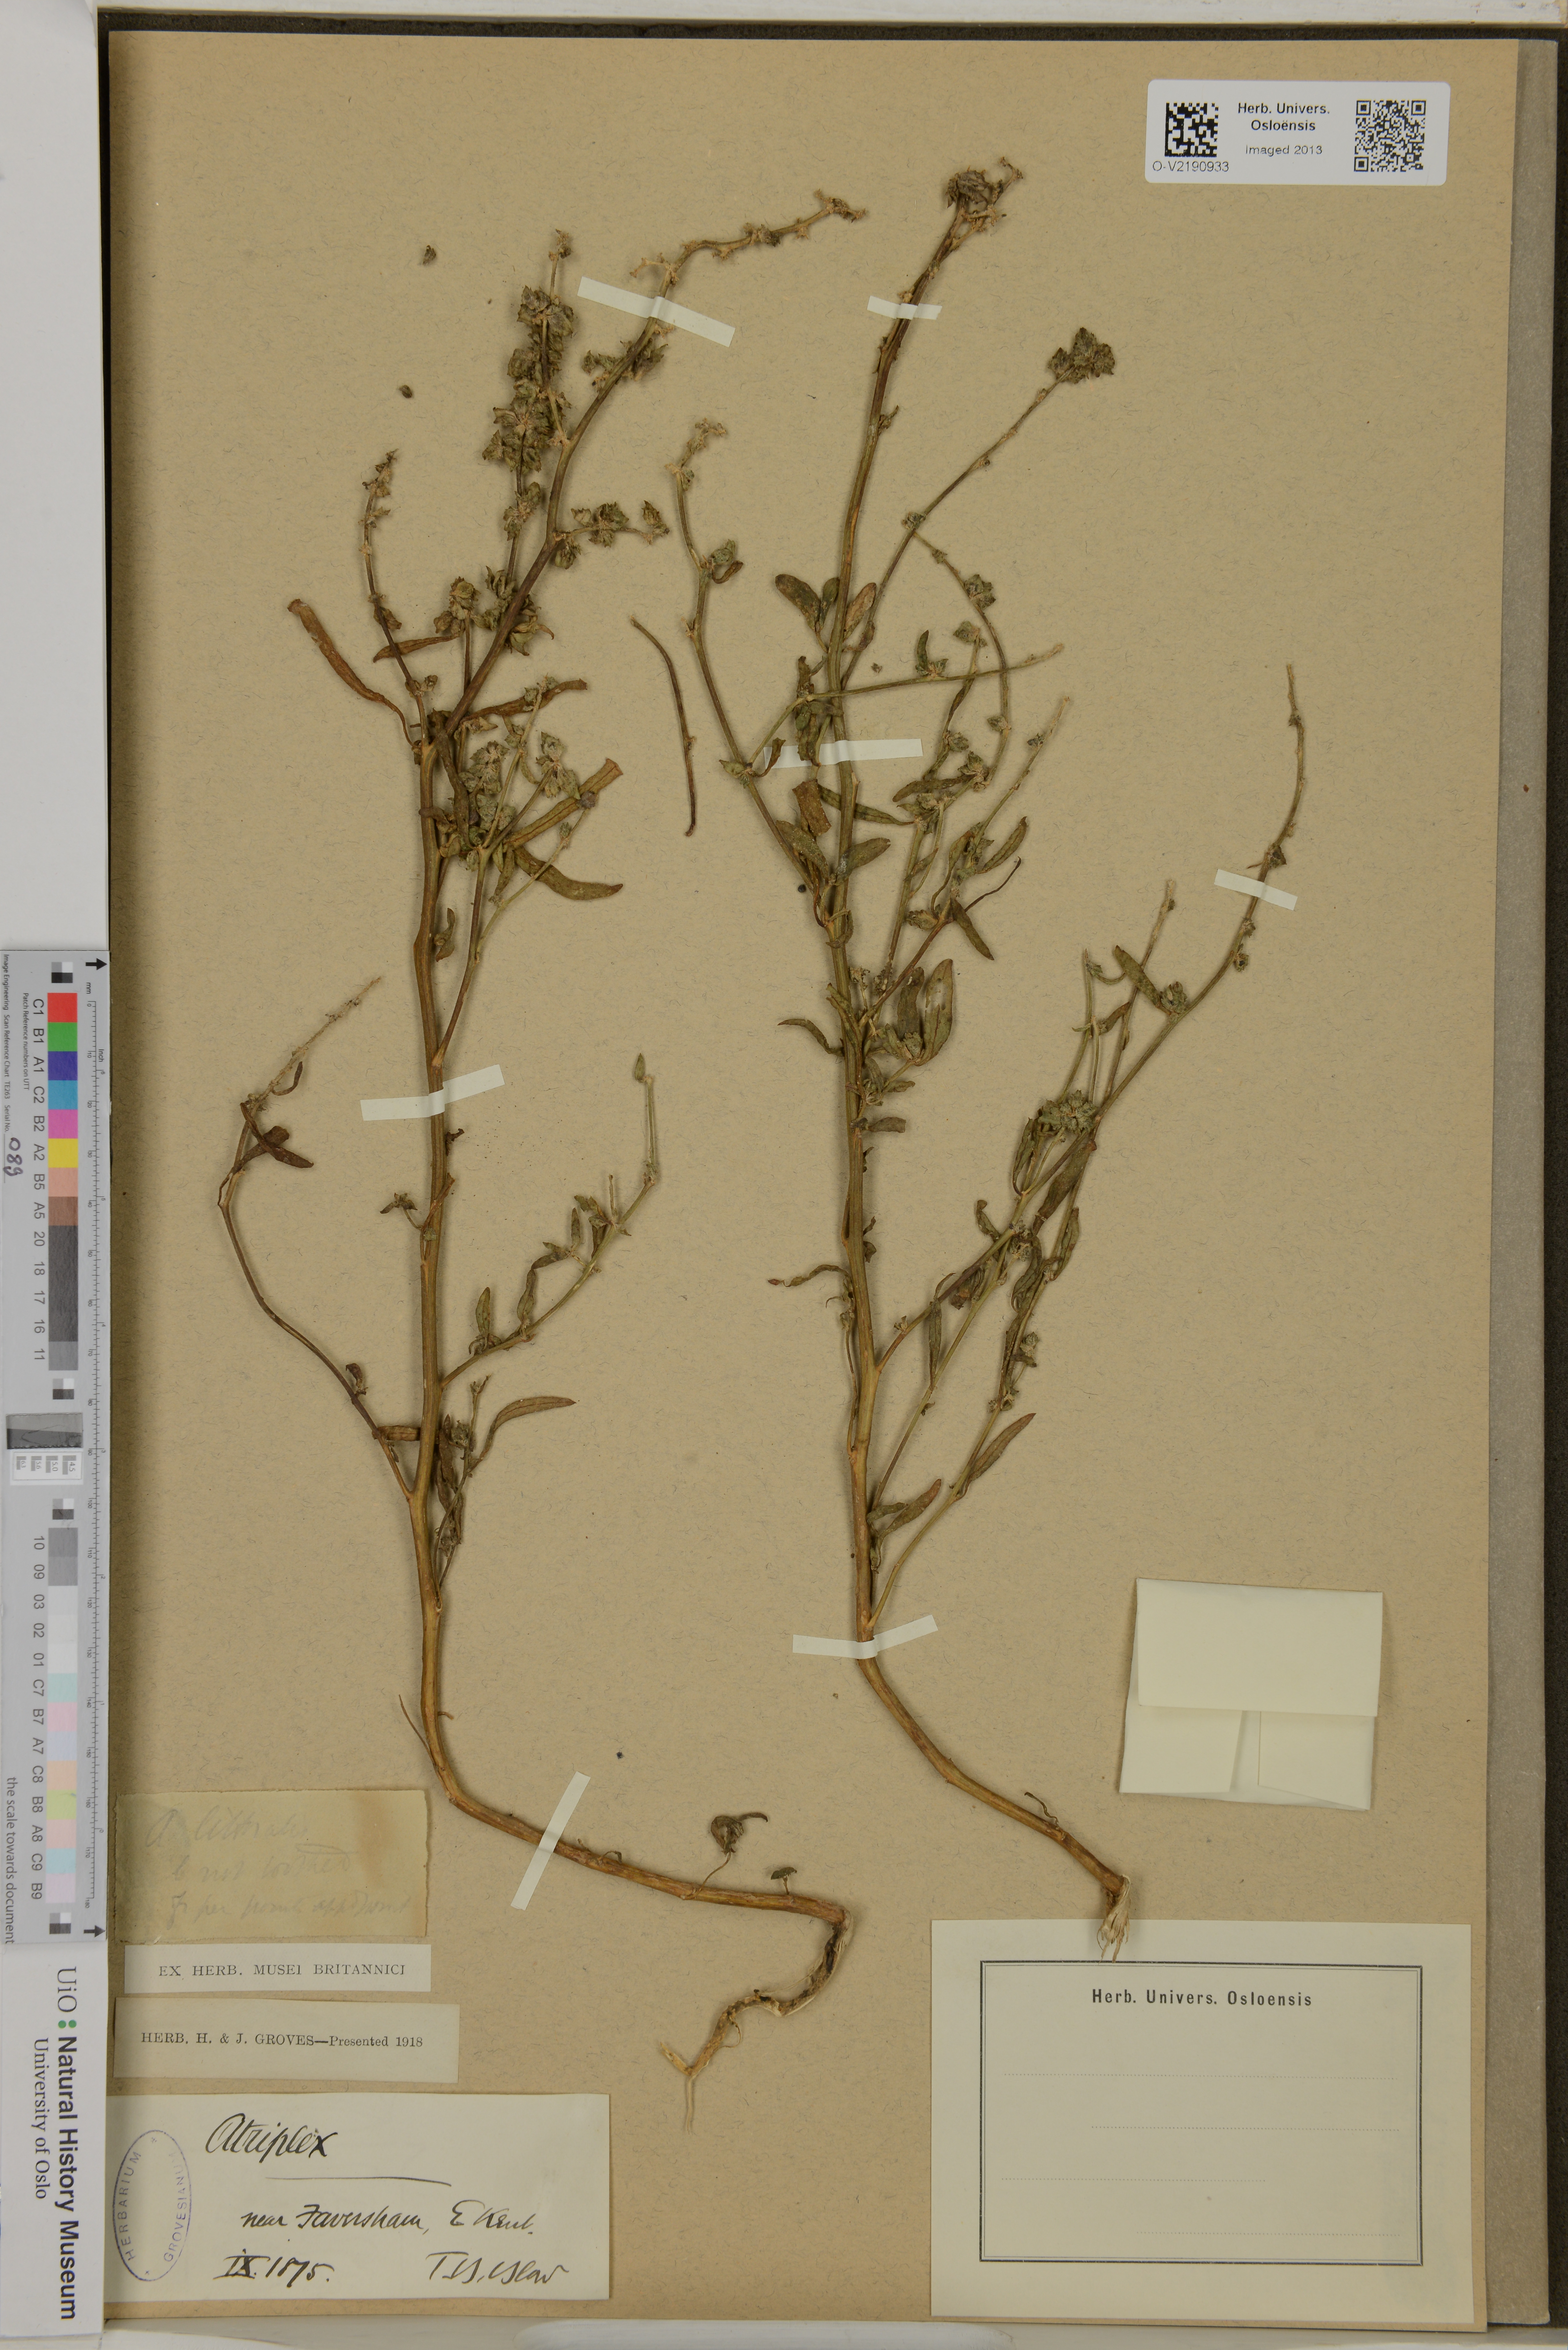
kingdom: Plantae
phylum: Tracheophyta
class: Magnoliopsida
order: Caryophyllales
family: Amaranthaceae
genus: Atriplex
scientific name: Atriplex littoralis
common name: Grass-leaved orache
